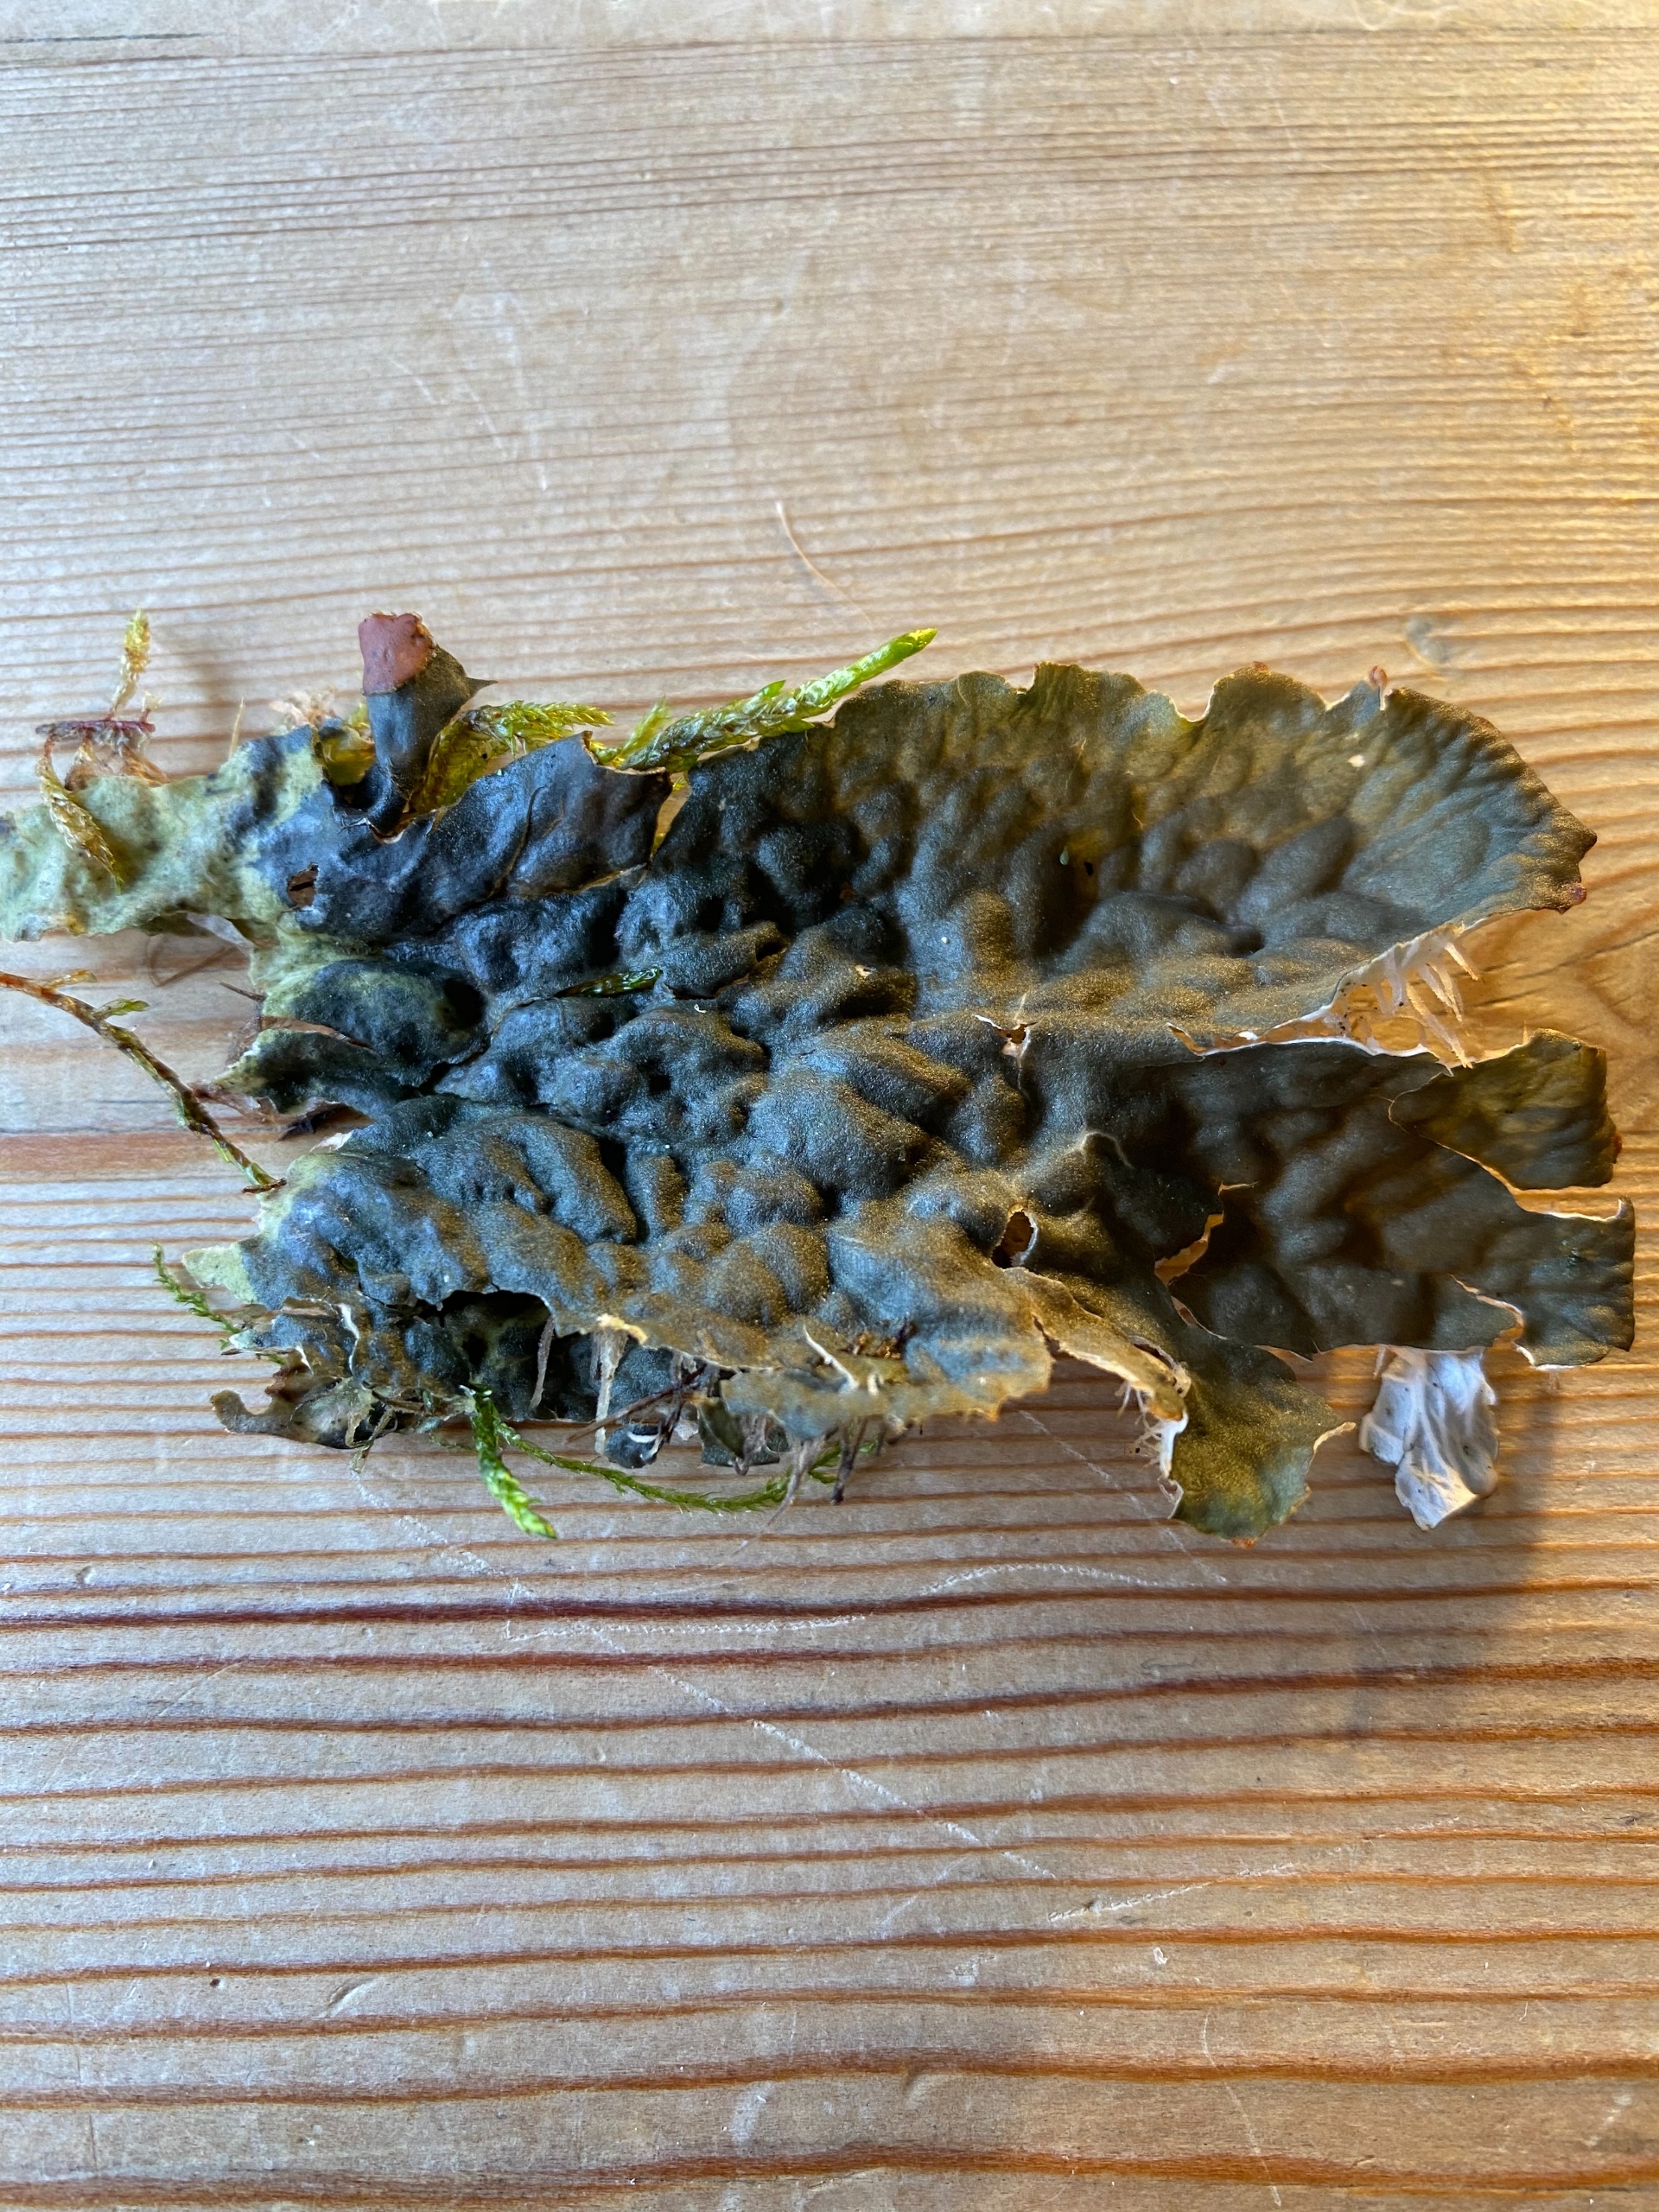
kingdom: Fungi
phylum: Ascomycota
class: Lecanoromycetes
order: Peltigerales
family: Peltigeraceae
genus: Peltigera
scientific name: Peltigera membranacea
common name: Tynd skjoldlav
